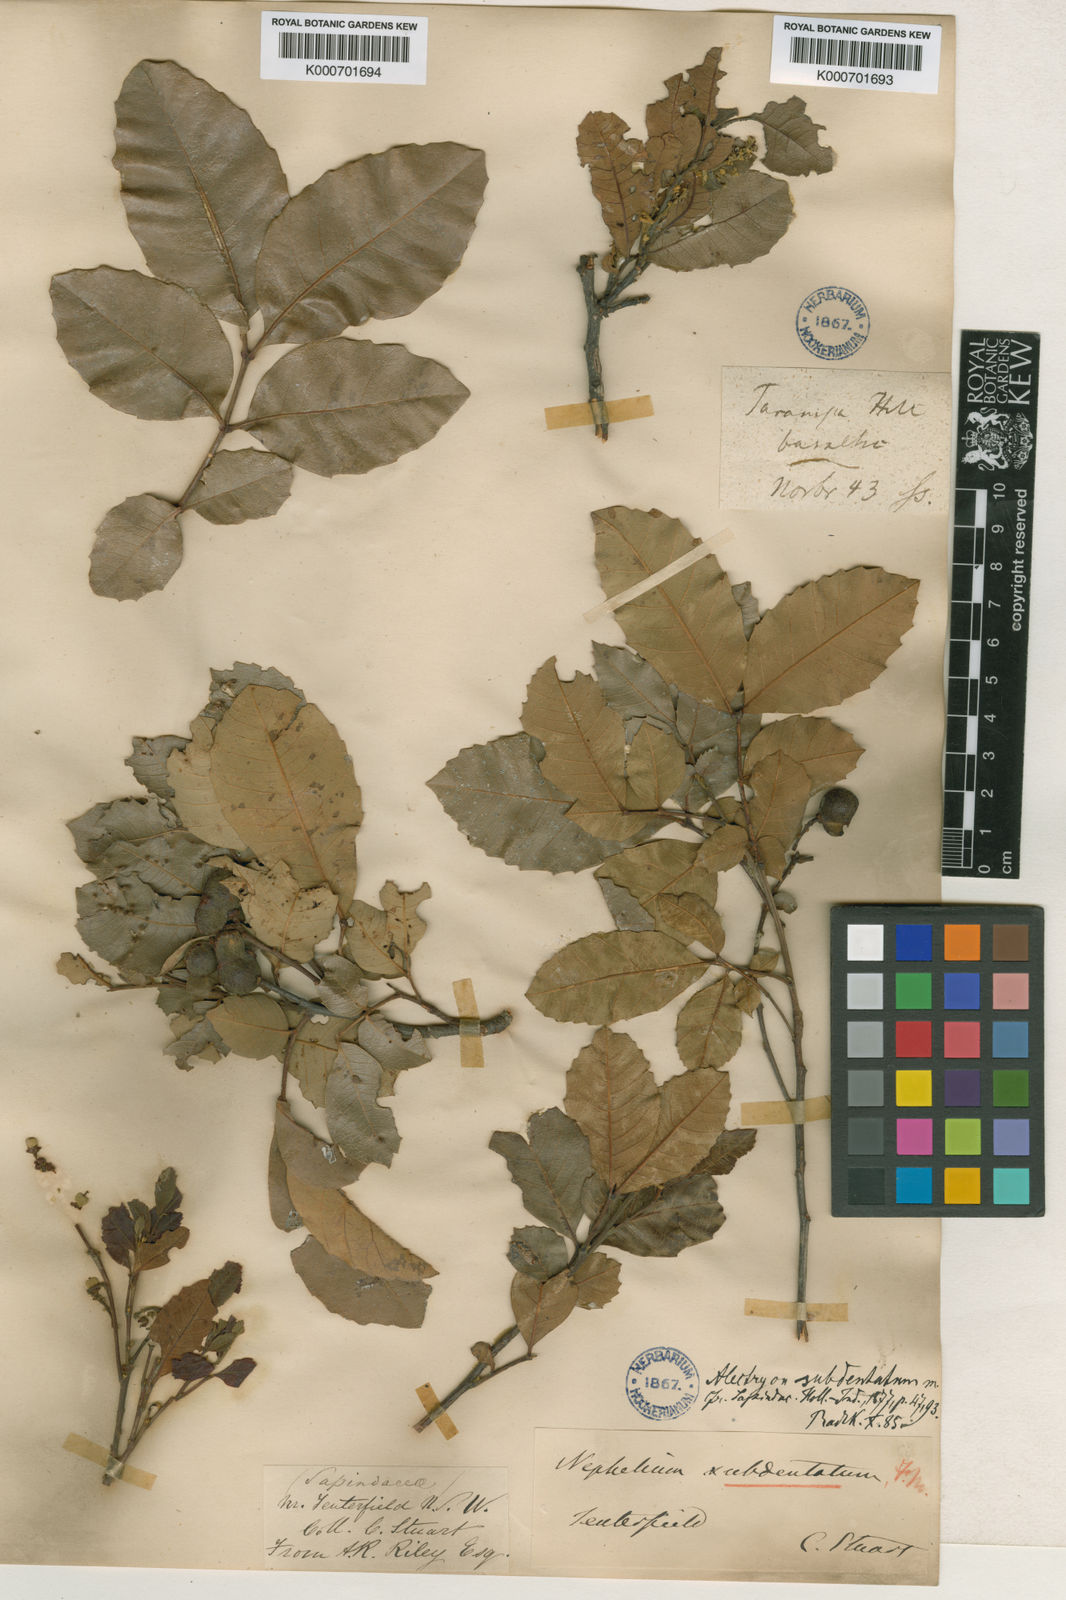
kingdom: Plantae
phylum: Tracheophyta
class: Magnoliopsida
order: Sapindales
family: Sapindaceae
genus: Alectryon
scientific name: Alectryon subdentatus
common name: Hard alectryon
